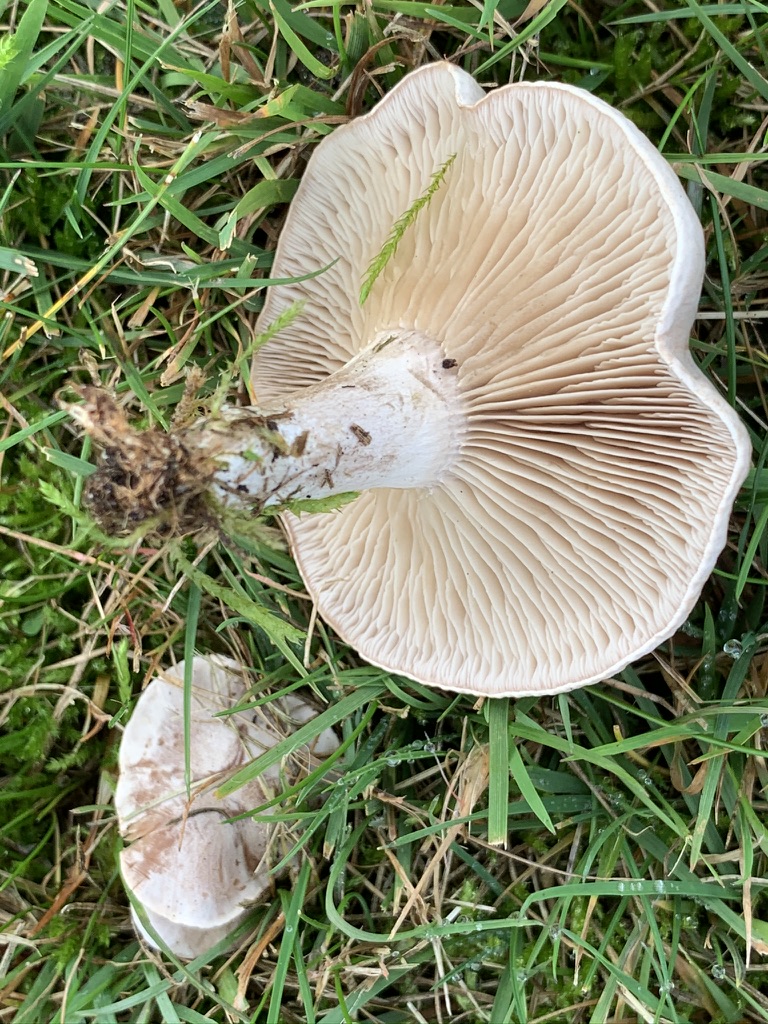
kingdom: Fungi
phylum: Basidiomycota
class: Agaricomycetes
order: Agaricales
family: Tricholomataceae
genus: Clitocybe
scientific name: Clitocybe rivulosa
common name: eng-tragthat
